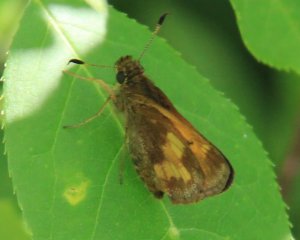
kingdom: Animalia
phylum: Arthropoda
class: Insecta
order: Lepidoptera
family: Hesperiidae
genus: Lon
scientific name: Lon hobomok
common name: Hobomok Skipper
